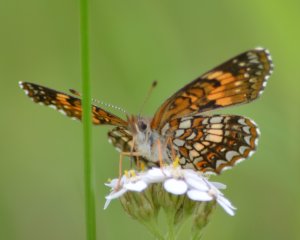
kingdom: Animalia
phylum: Arthropoda
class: Insecta
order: Lepidoptera
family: Nymphalidae
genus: Chlosyne
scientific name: Chlosyne harrisii
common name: Harris's Checkerspot
